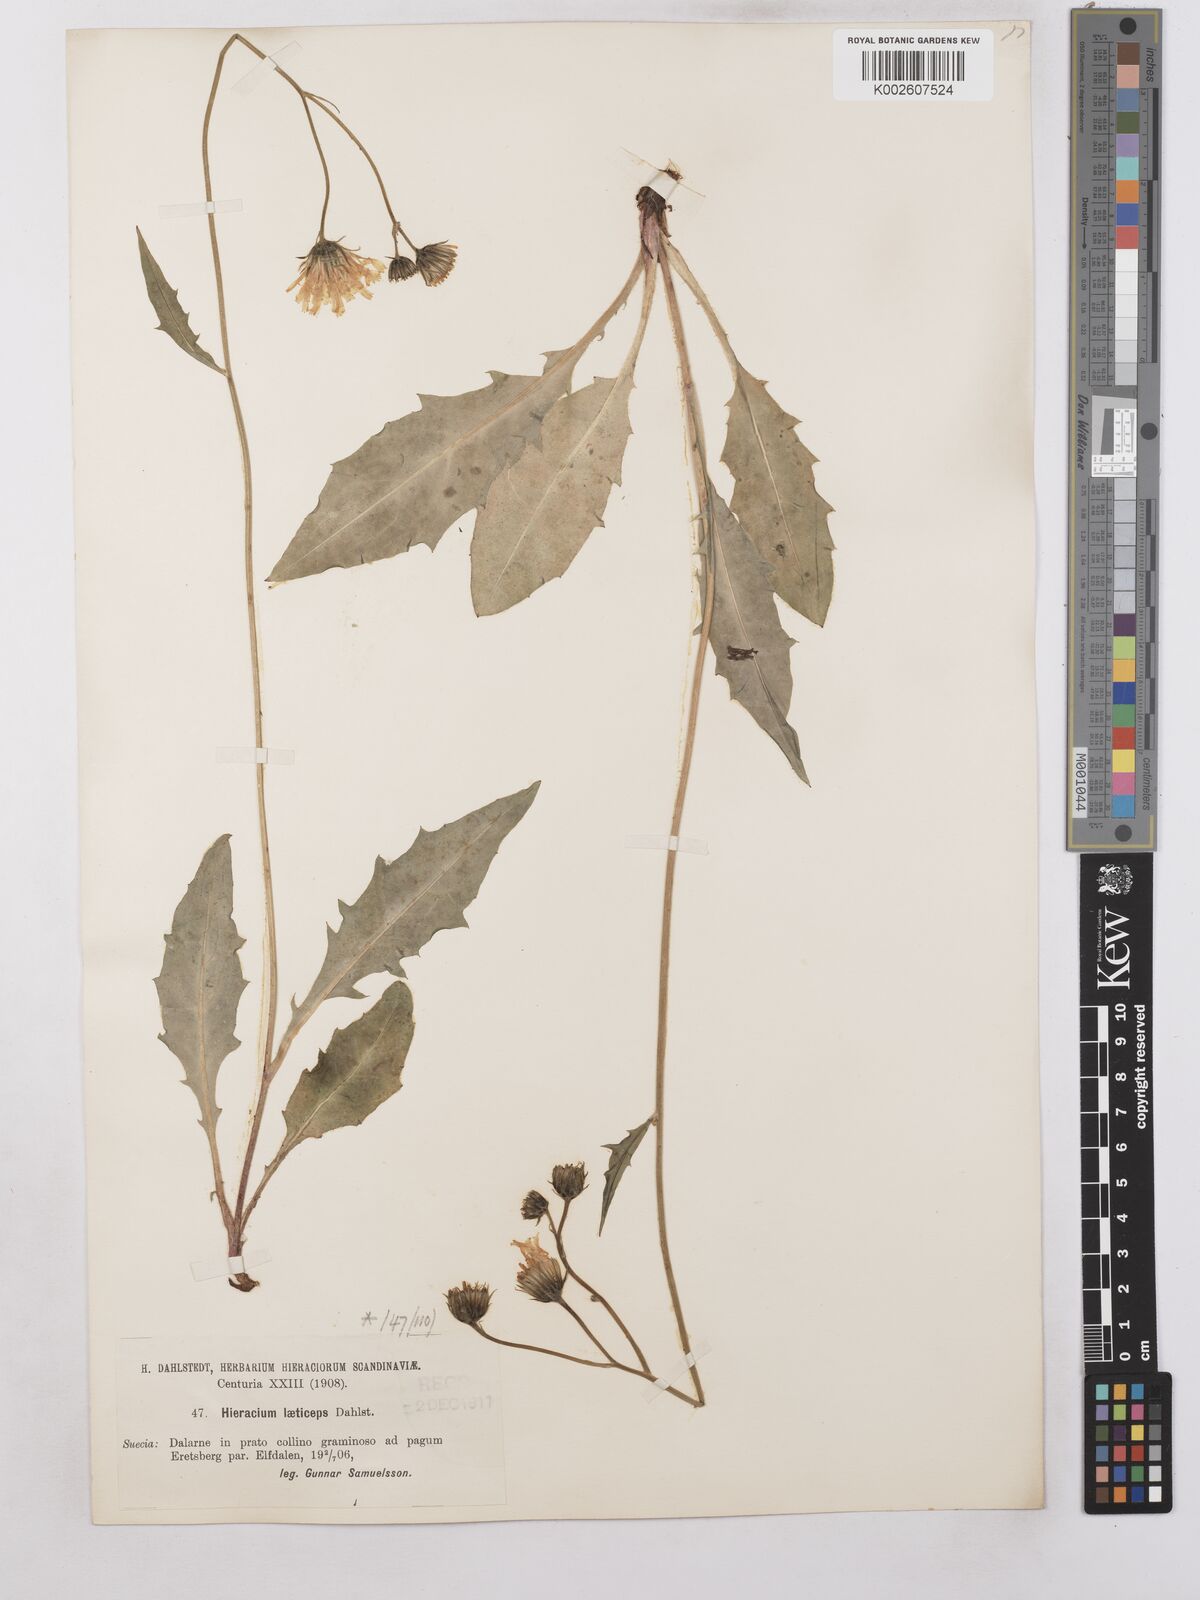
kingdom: Plantae
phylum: Tracheophyta
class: Magnoliopsida
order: Asterales
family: Asteraceae
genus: Hieracium
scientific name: Hieracium caesium
